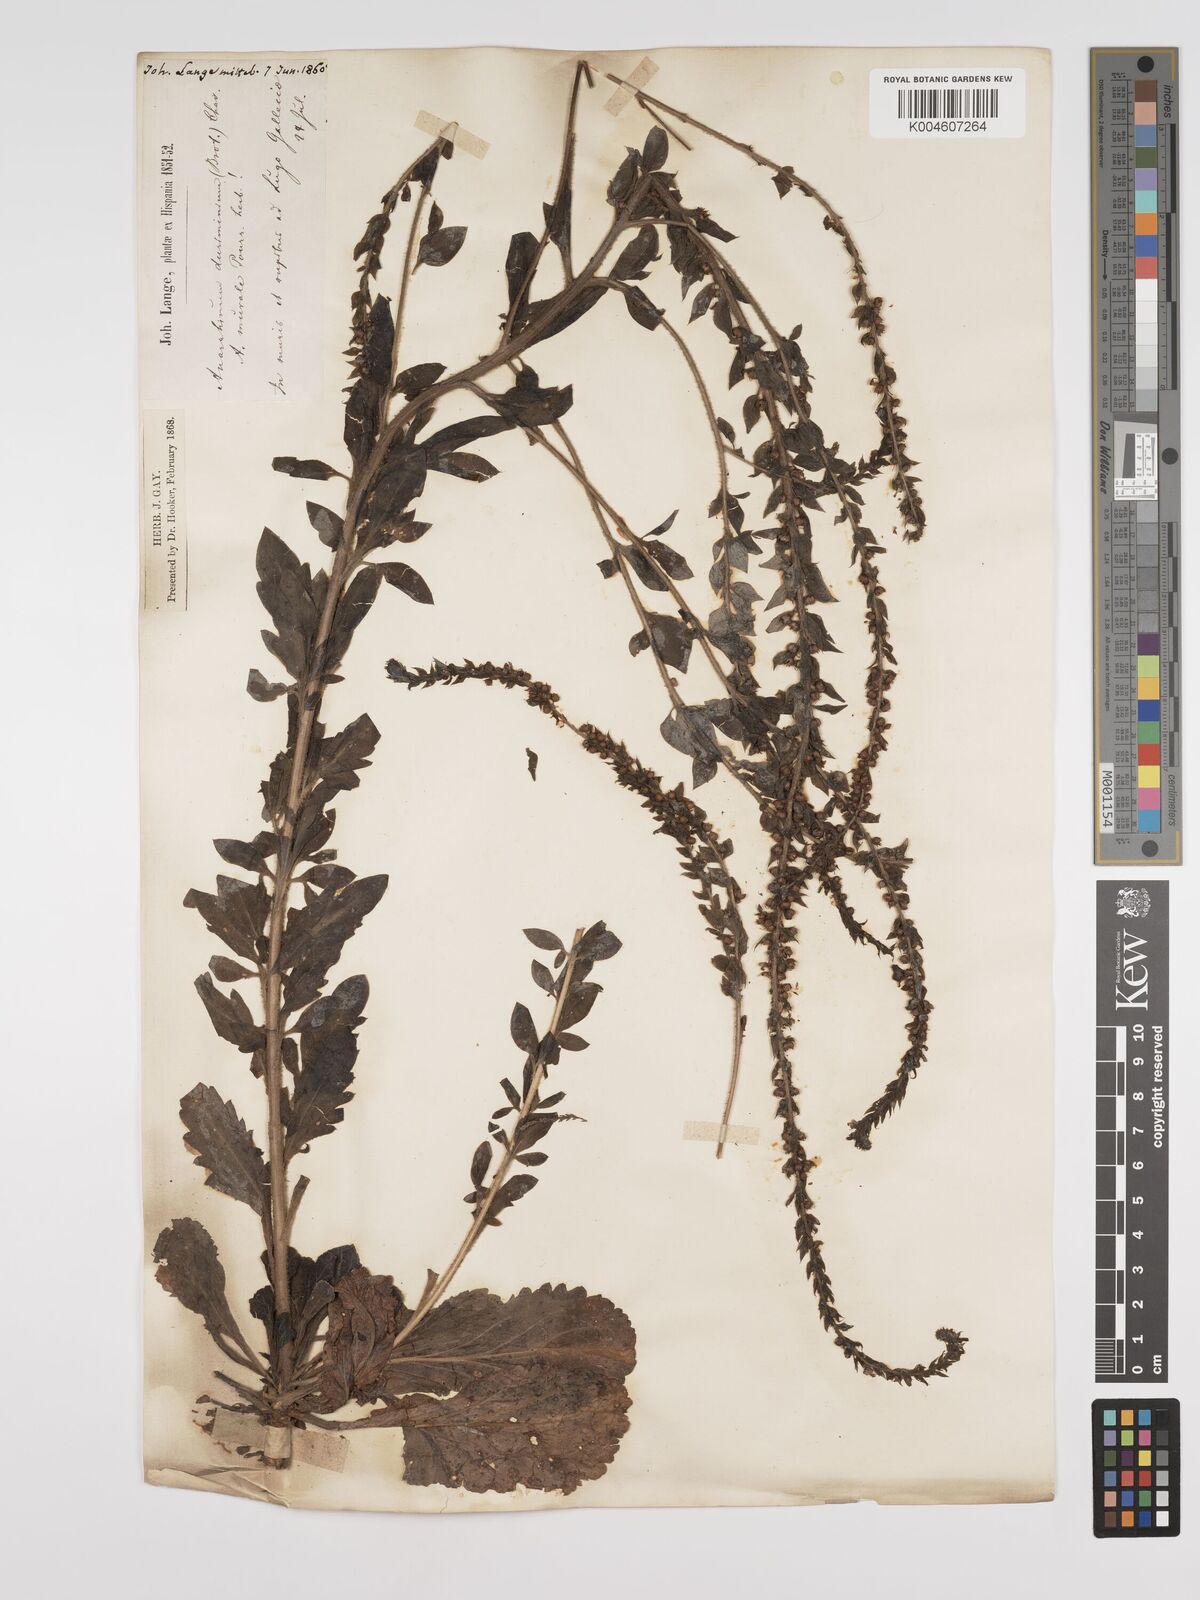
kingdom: Plantae
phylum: Tracheophyta
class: Magnoliopsida
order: Lamiales
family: Plantaginaceae
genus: Anarrhinum
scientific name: Anarrhinum duriminium
